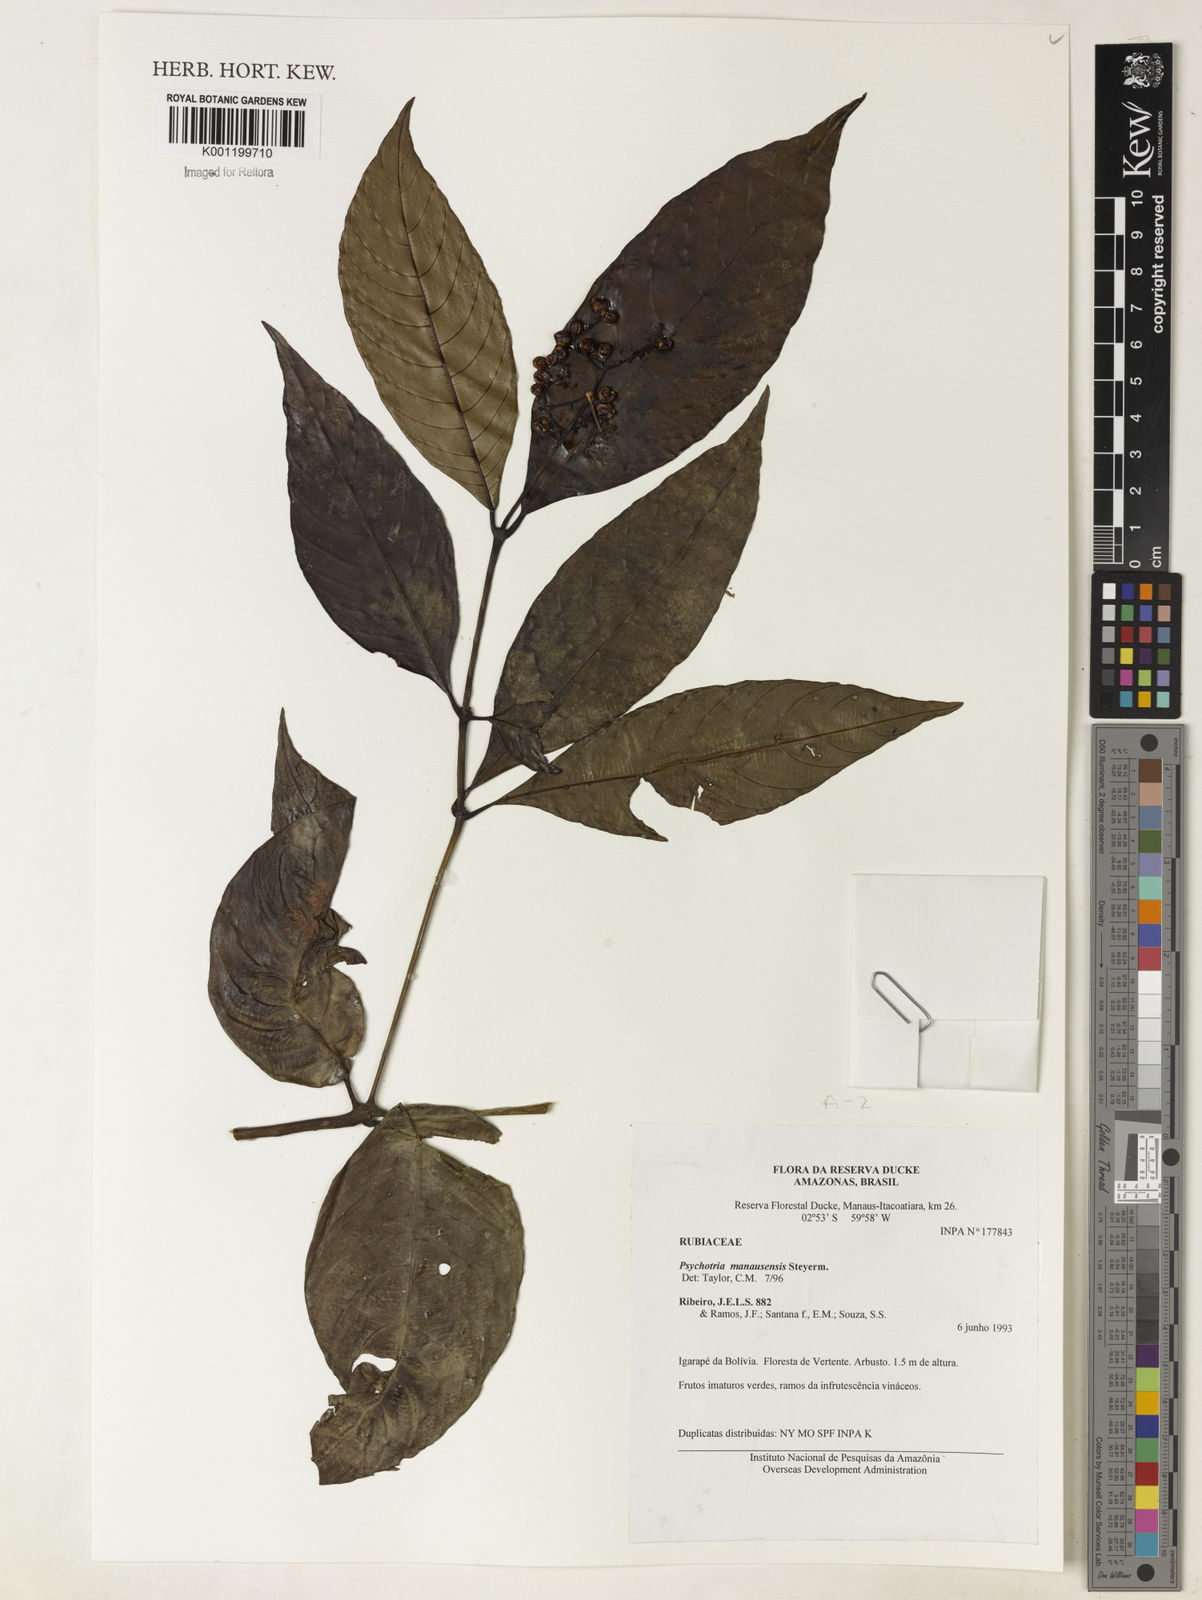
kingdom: Plantae
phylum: Tracheophyta
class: Magnoliopsida
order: Gentianales
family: Rubiaceae
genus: Palicourea
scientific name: Palicourea manausensis
